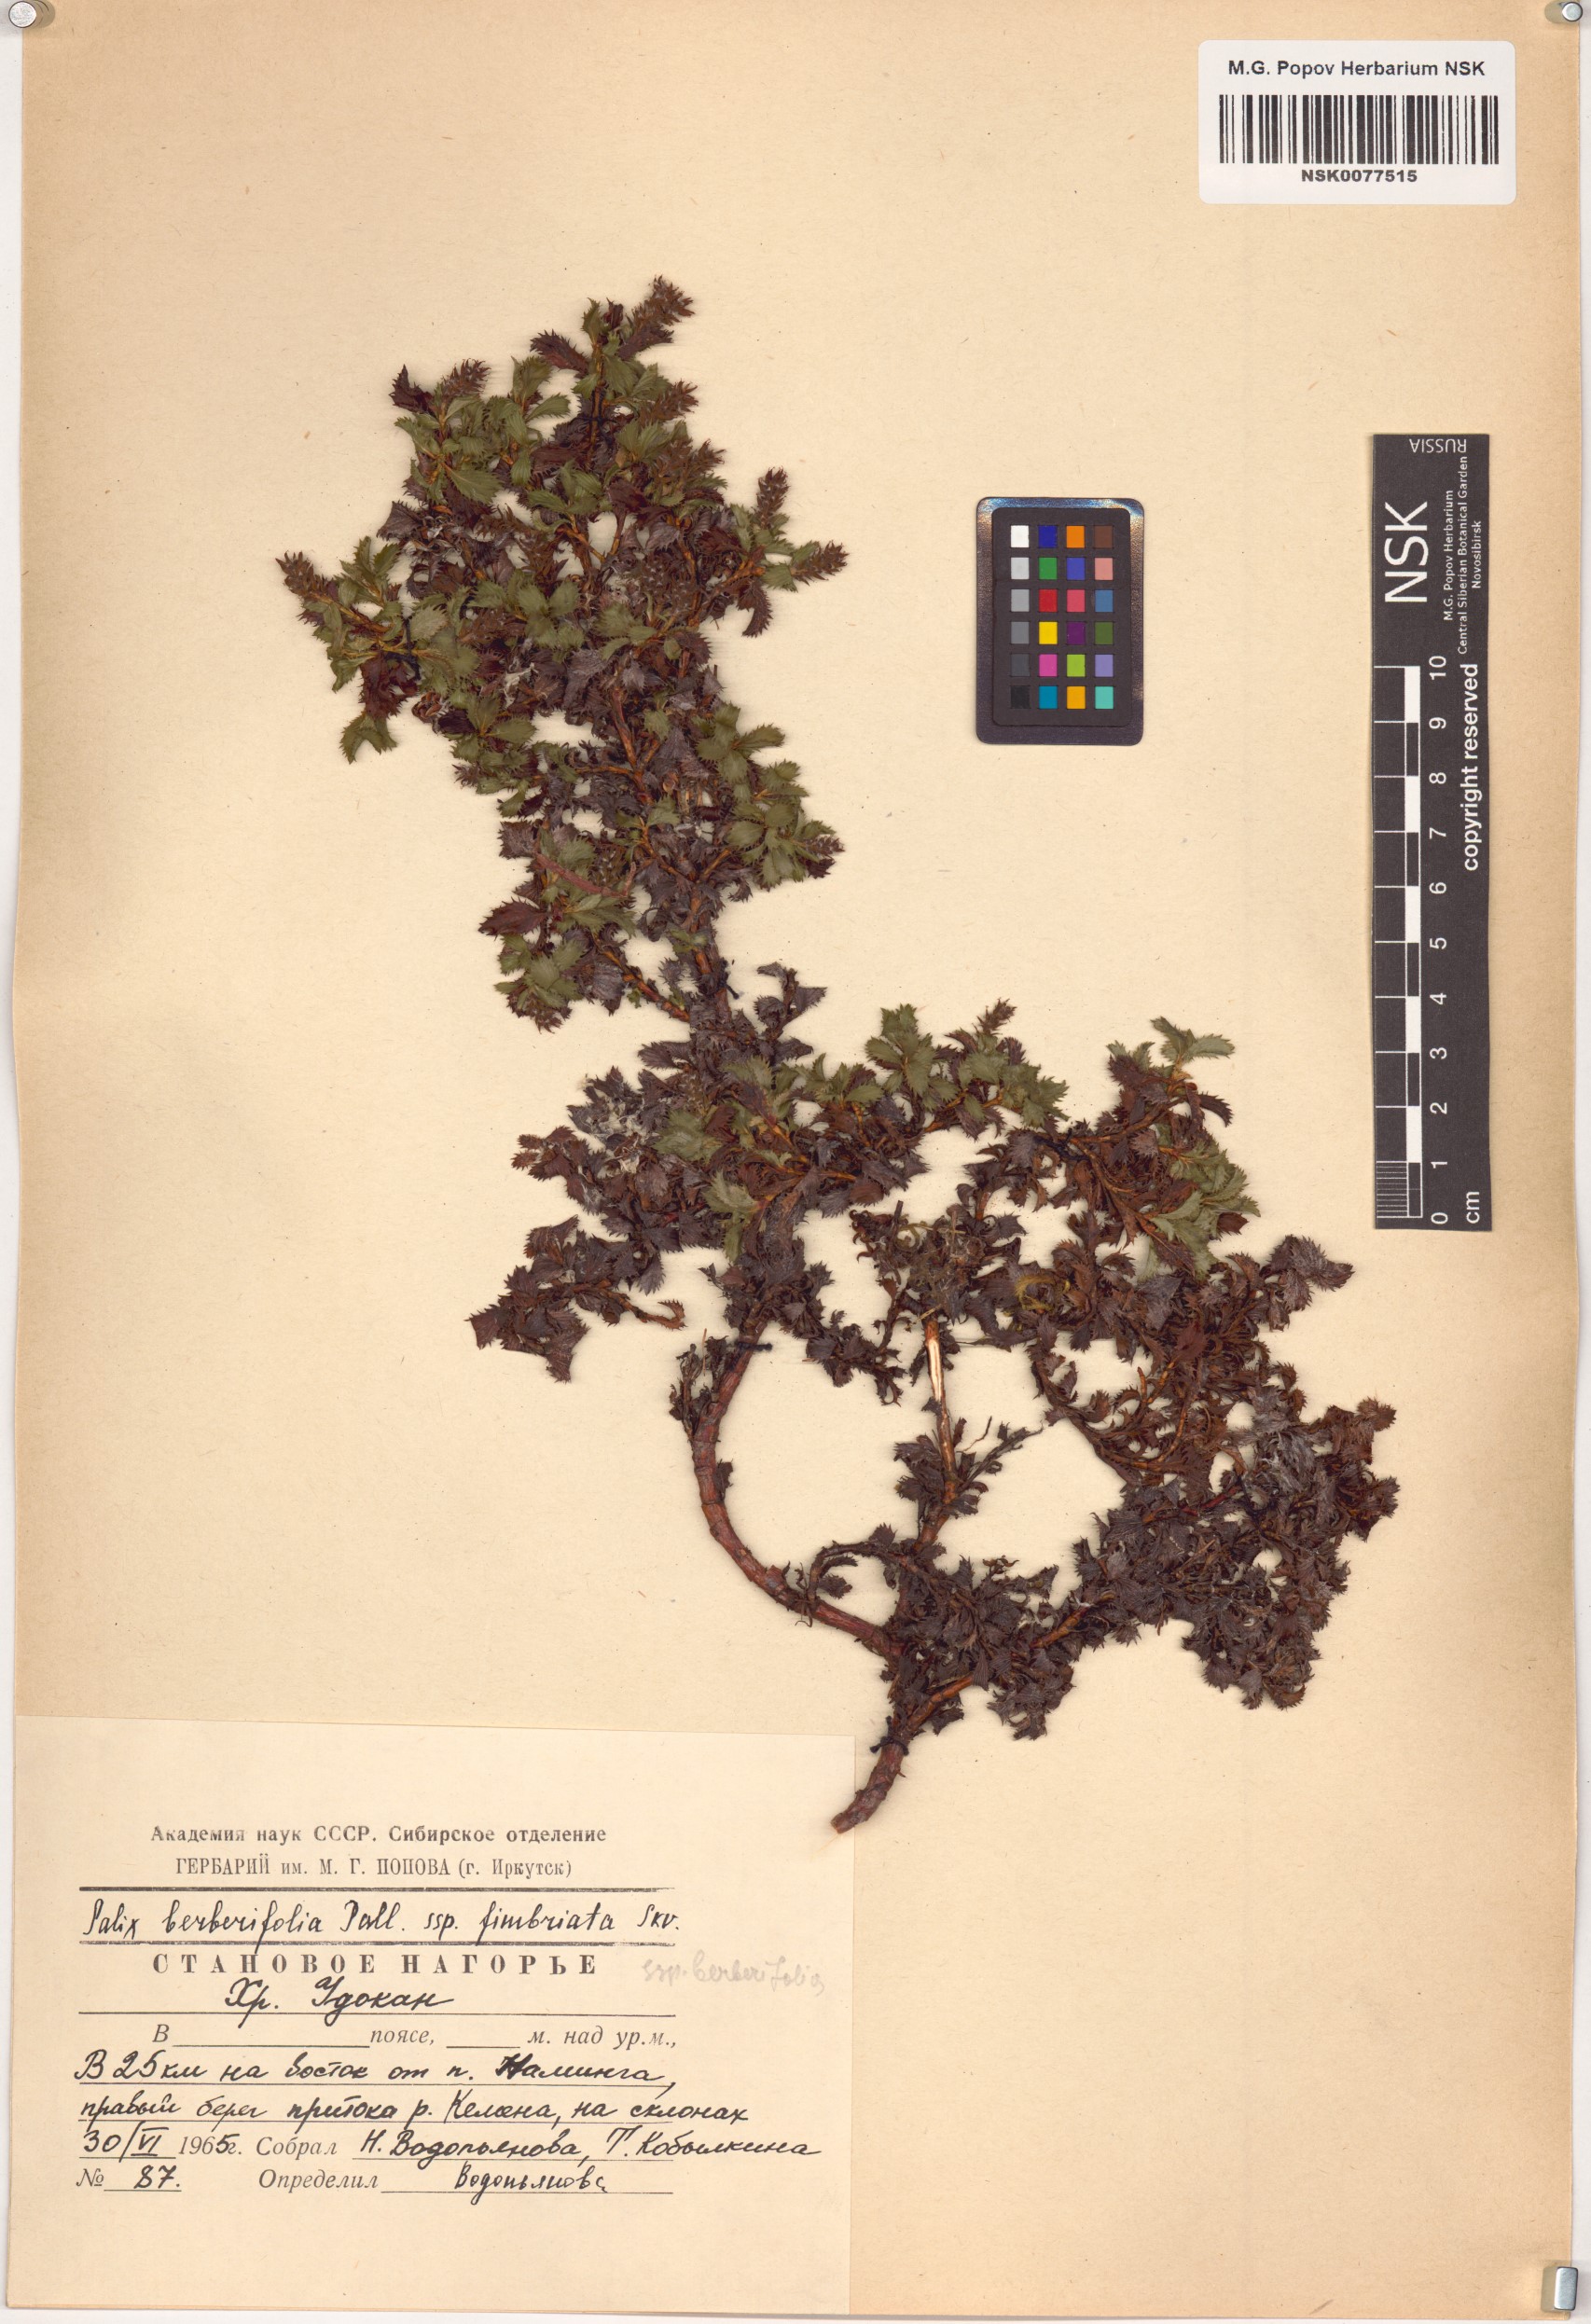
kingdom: Plantae
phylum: Tracheophyta
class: Magnoliopsida
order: Malpighiales
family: Salicaceae
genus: Salix
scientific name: Salix berberifolia
